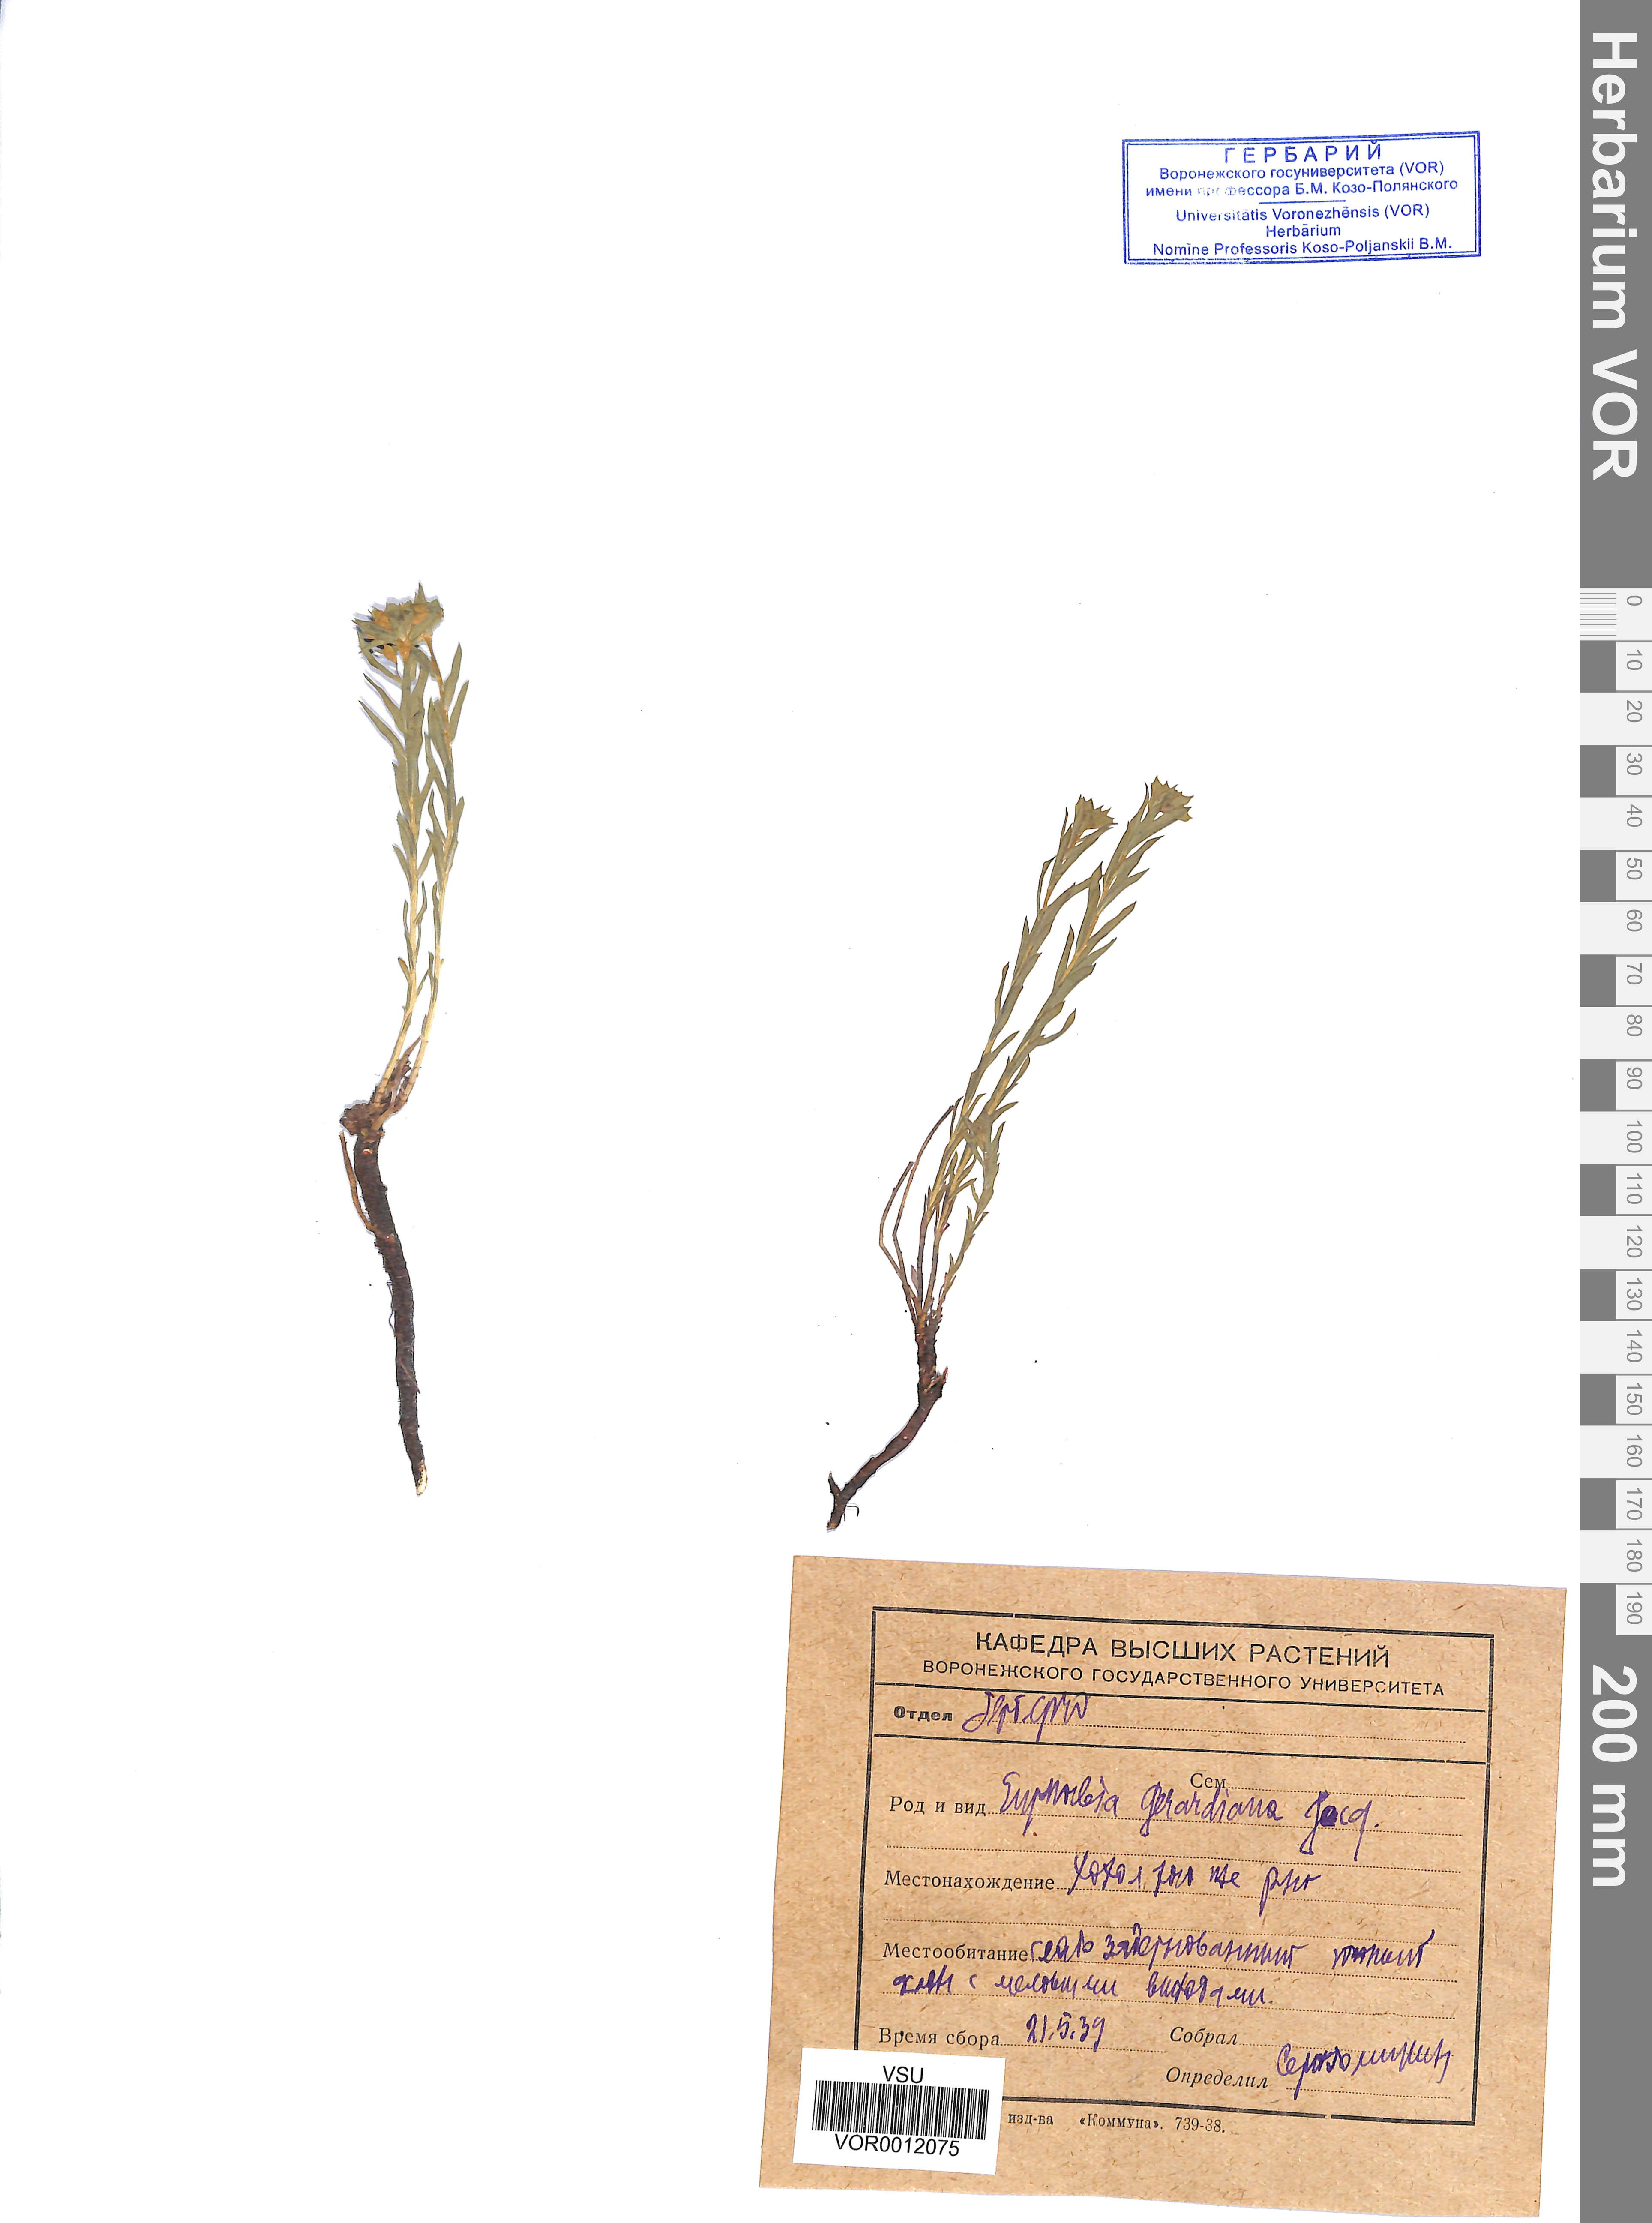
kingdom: Plantae
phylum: Tracheophyta
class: Magnoliopsida
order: Malpighiales
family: Euphorbiaceae
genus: Euphorbia
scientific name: Euphorbia seguieriana
